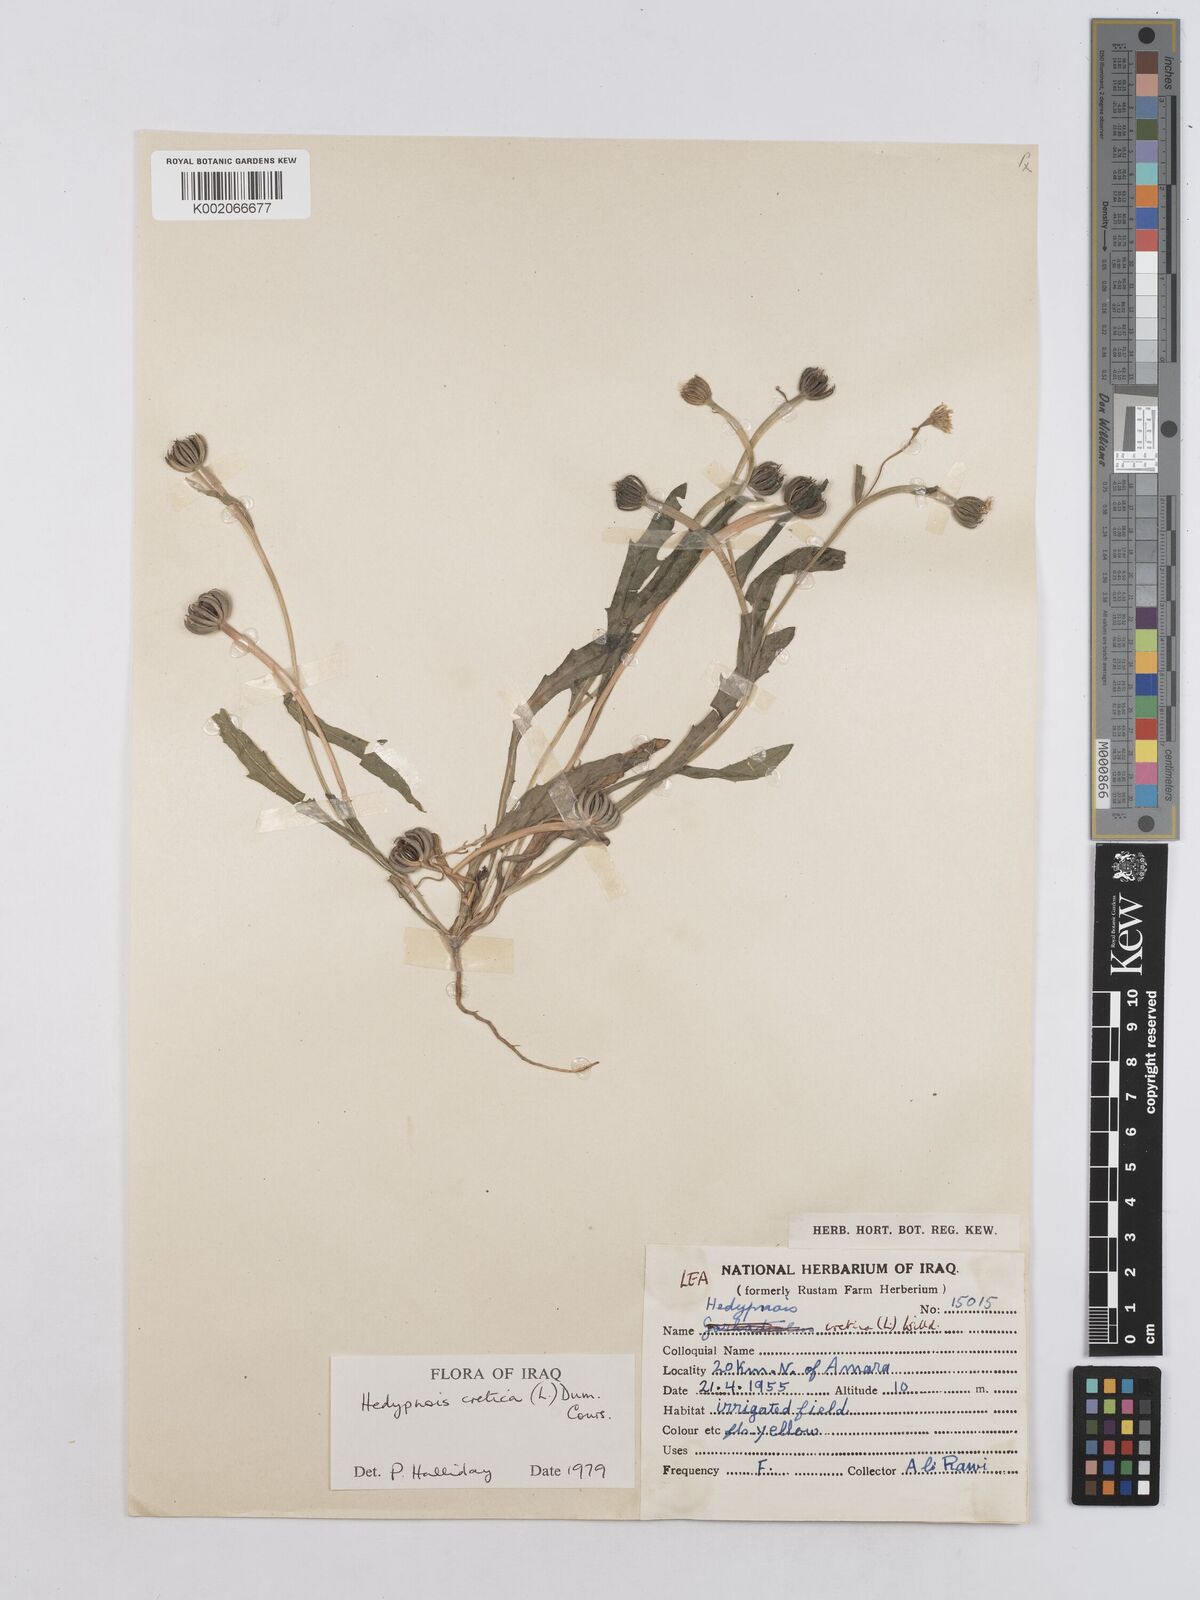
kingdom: Plantae
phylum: Tracheophyta
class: Magnoliopsida
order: Asterales
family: Asteraceae
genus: Hedypnois
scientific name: Hedypnois cretica
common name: Scaly hawkbit
